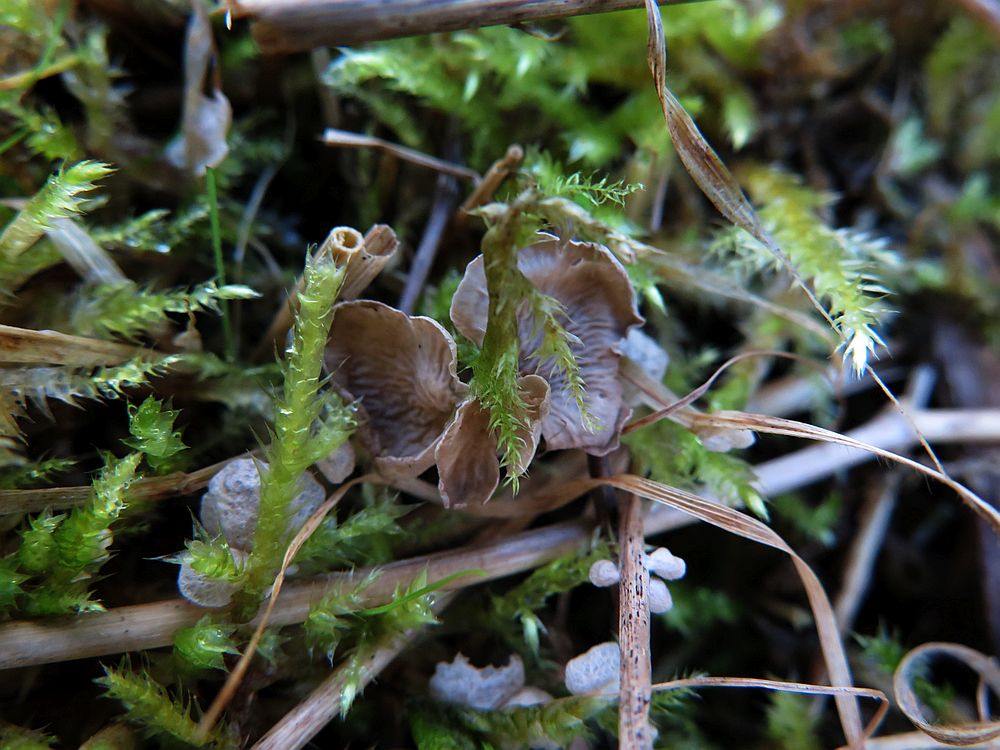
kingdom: Fungi
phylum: Basidiomycota
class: Agaricomycetes
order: Agaricales
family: Hygrophoraceae
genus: Arrhenia
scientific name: Arrhenia retiruga
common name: lille fontænehat
